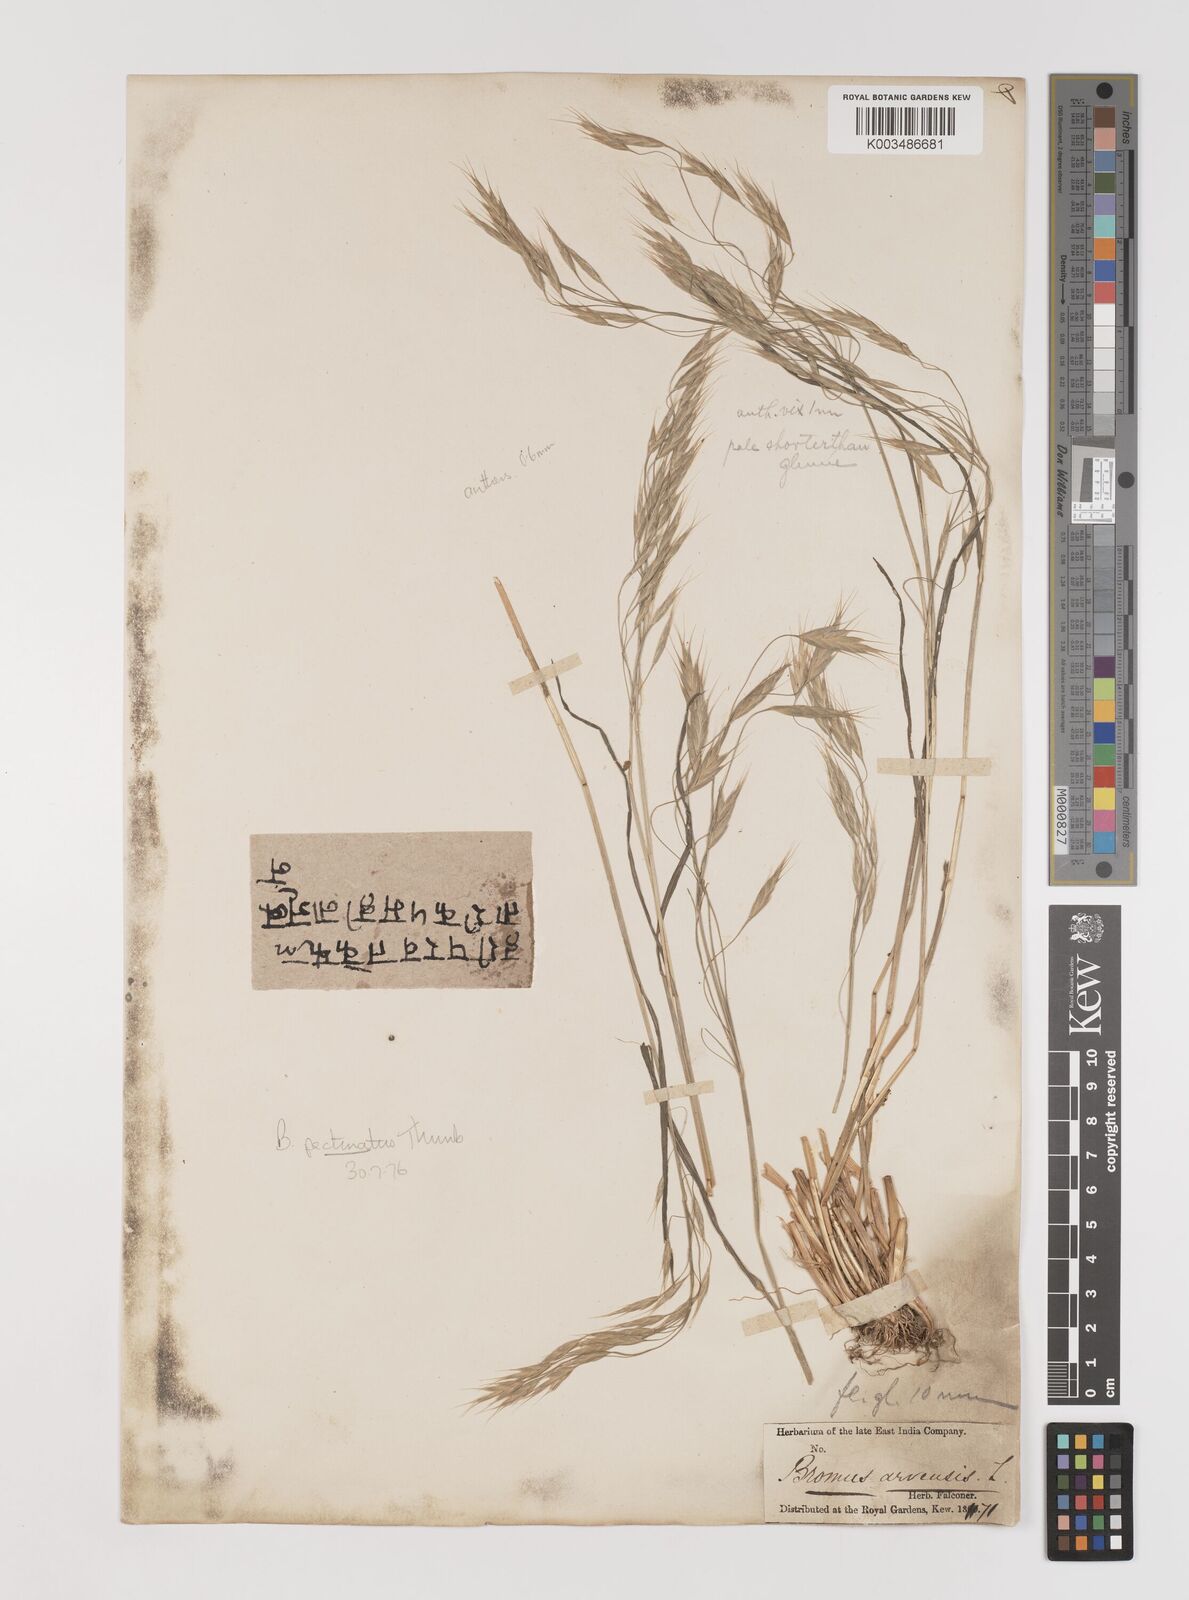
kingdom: Plantae
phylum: Tracheophyta
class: Liliopsida
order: Poales
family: Poaceae
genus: Bromus
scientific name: Bromus pectinatus
